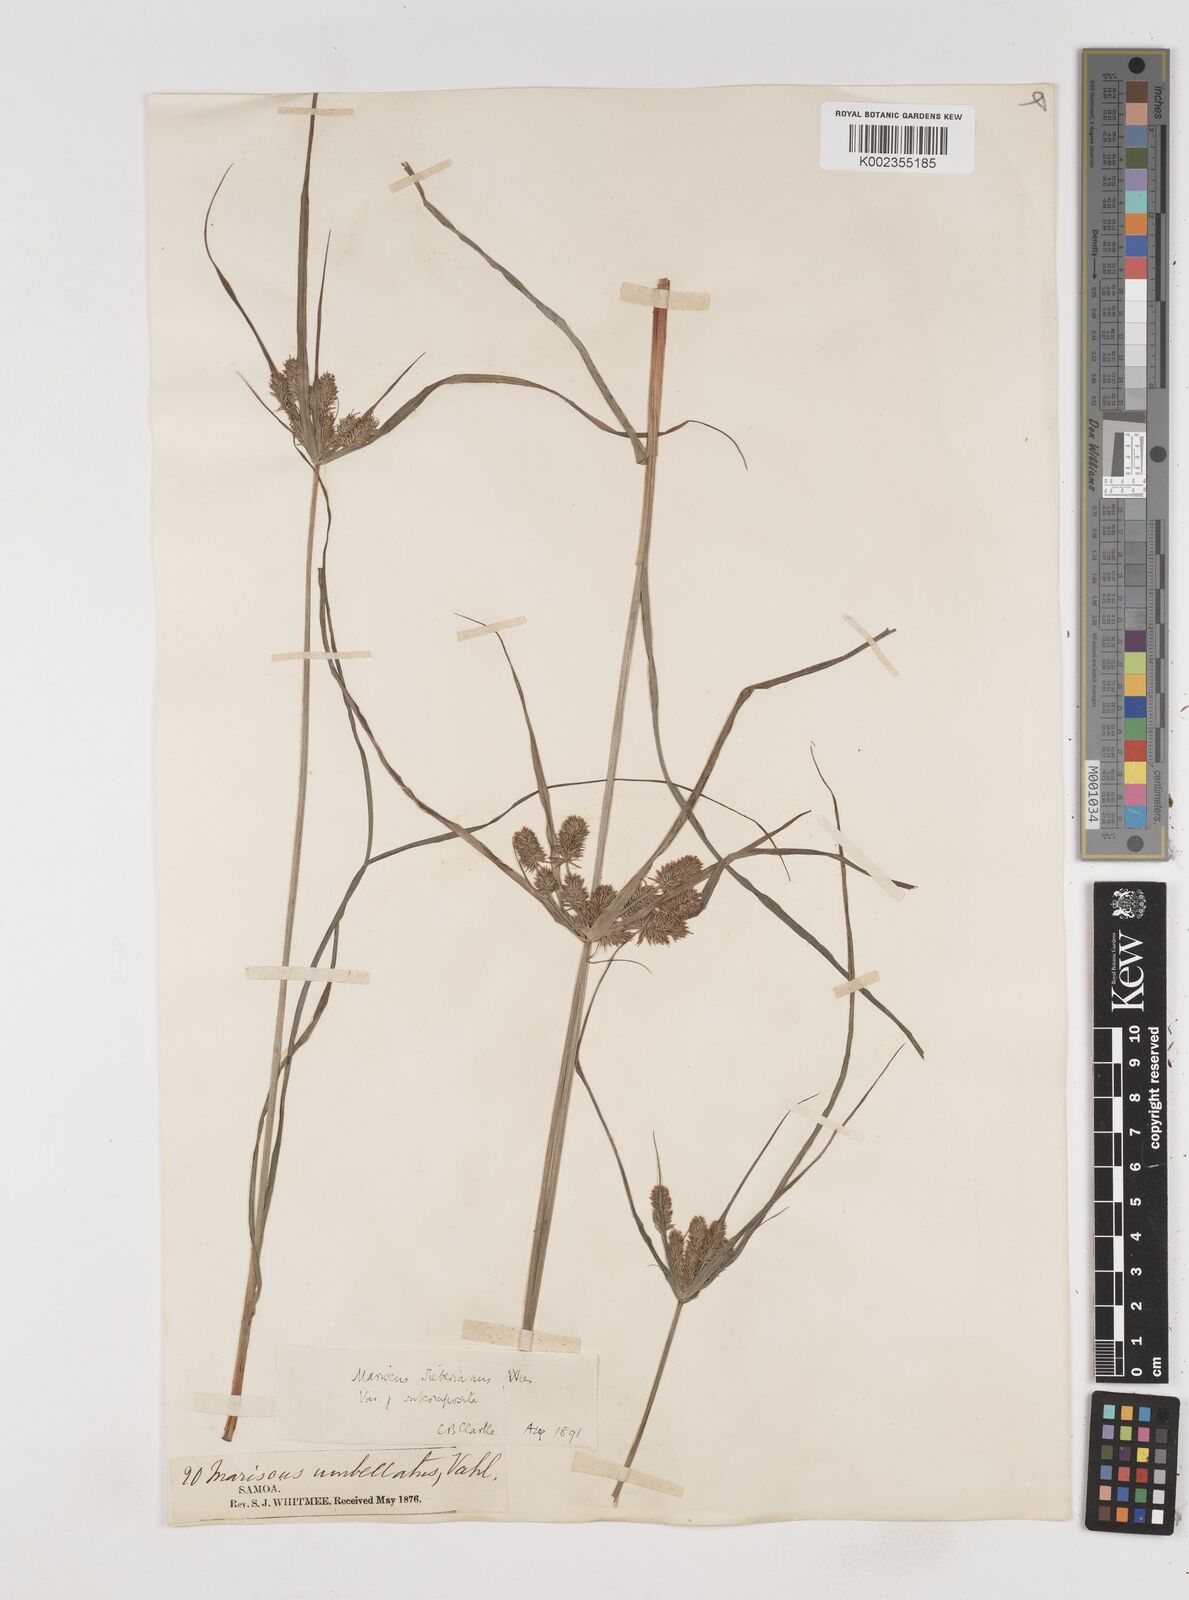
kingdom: Plantae
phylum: Tracheophyta
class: Liliopsida
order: Poales
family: Cyperaceae
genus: Cyperus
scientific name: Cyperus cyperoides
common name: Pacific island flat sedge
